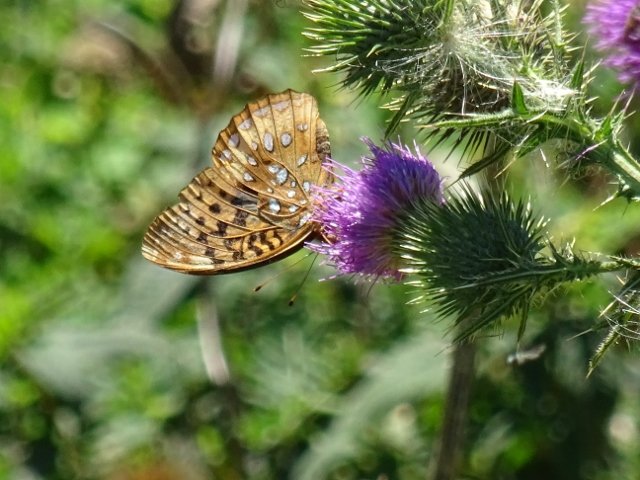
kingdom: Animalia
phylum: Arthropoda
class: Insecta
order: Lepidoptera
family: Nymphalidae
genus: Speyeria
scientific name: Speyeria cybele
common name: Great Spangled Fritillary
